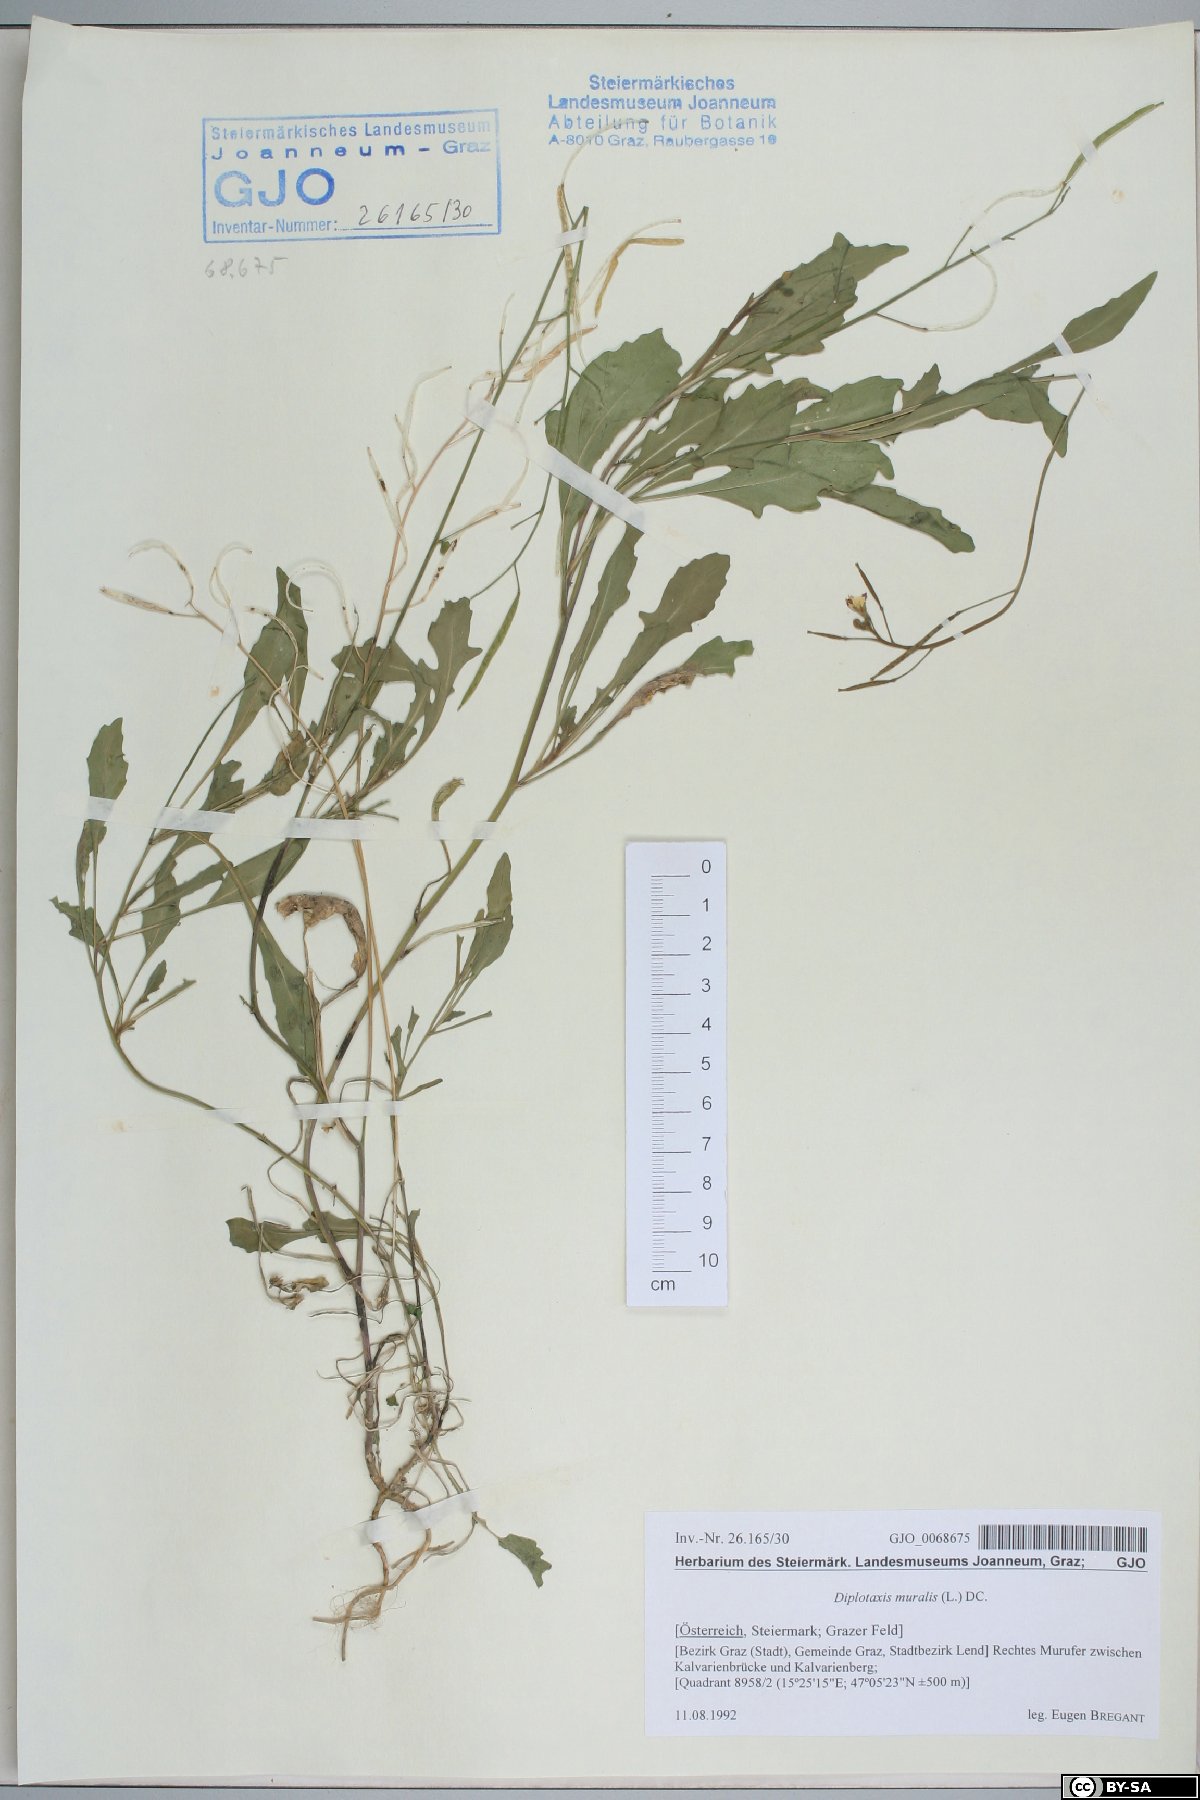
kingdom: Plantae
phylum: Tracheophyta
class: Magnoliopsida
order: Brassicales
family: Brassicaceae
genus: Diplotaxis
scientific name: Diplotaxis muralis
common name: Annual wall-rocket
